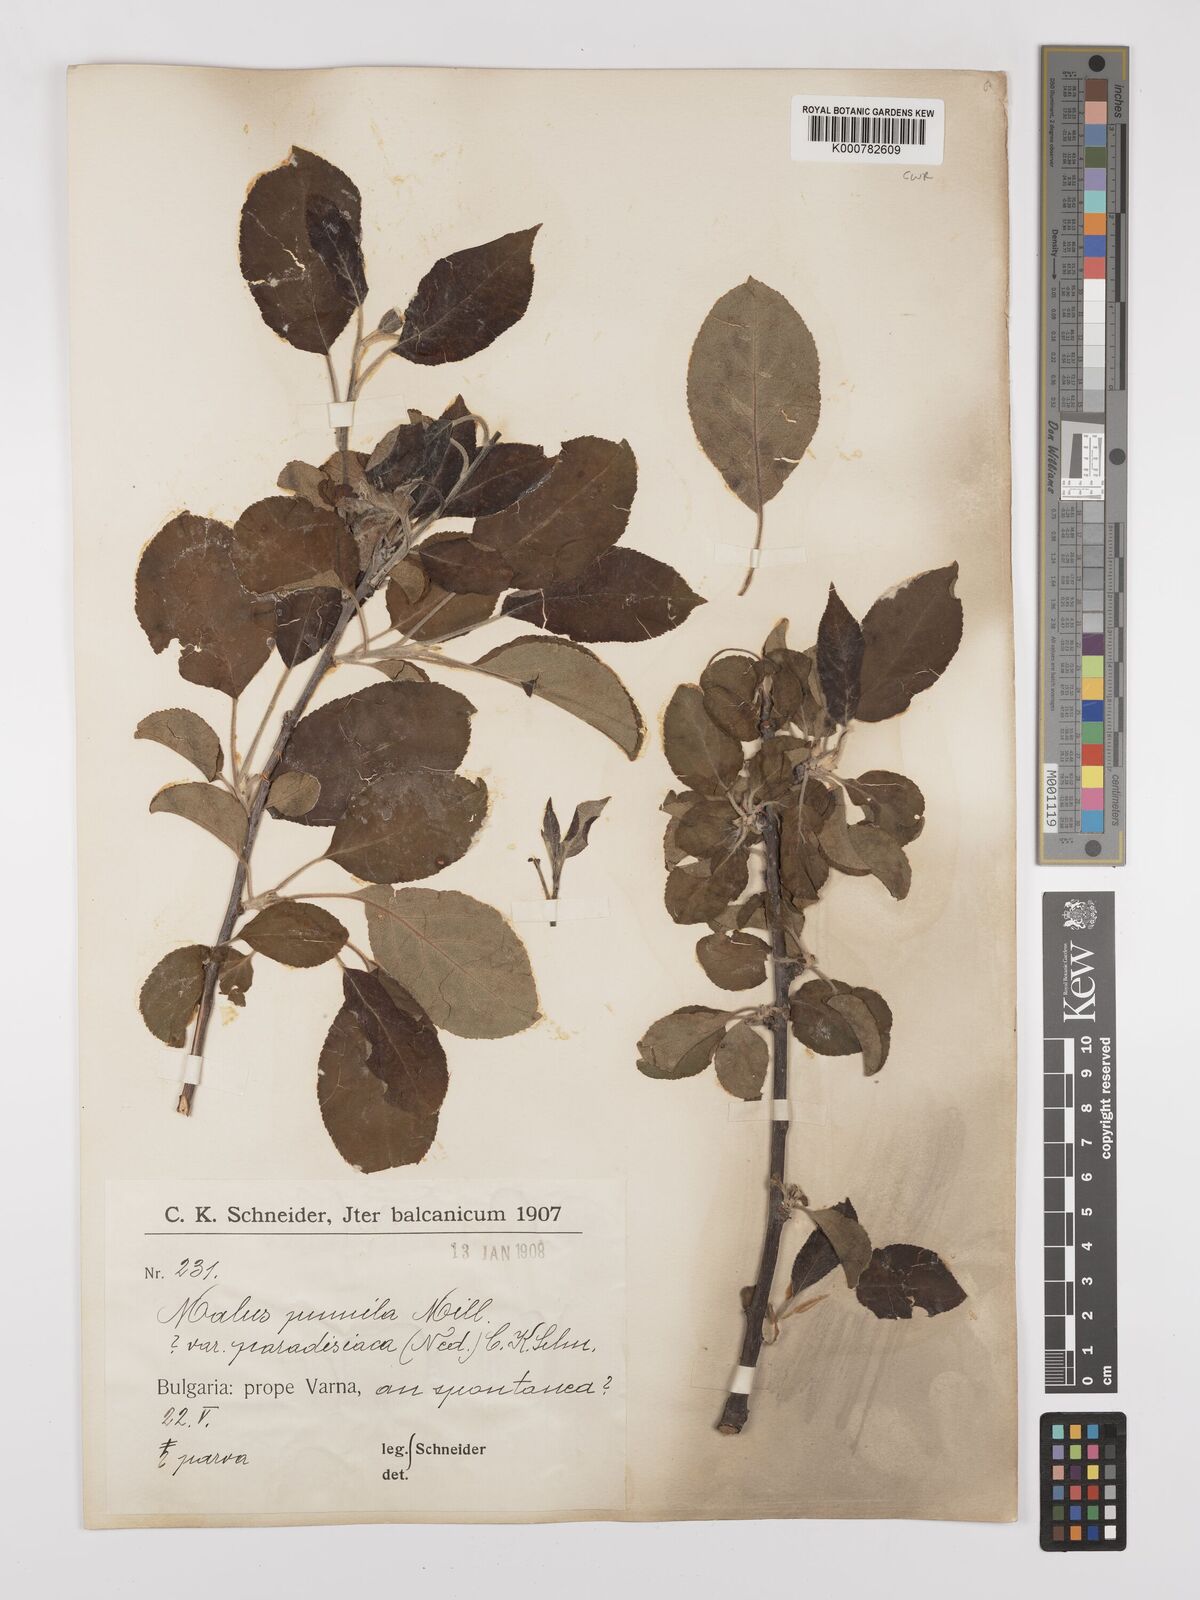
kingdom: Plantae
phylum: Tracheophyta
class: Magnoliopsida
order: Rosales
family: Rosaceae
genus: Malus
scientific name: Malus domestica
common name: Apple
